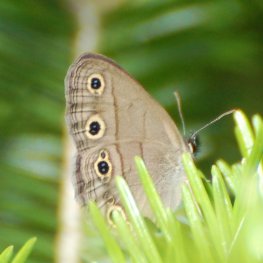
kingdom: Animalia
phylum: Arthropoda
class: Insecta
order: Lepidoptera
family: Nymphalidae
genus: Euptychia
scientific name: Euptychia cymela
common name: Little Wood Satyr
